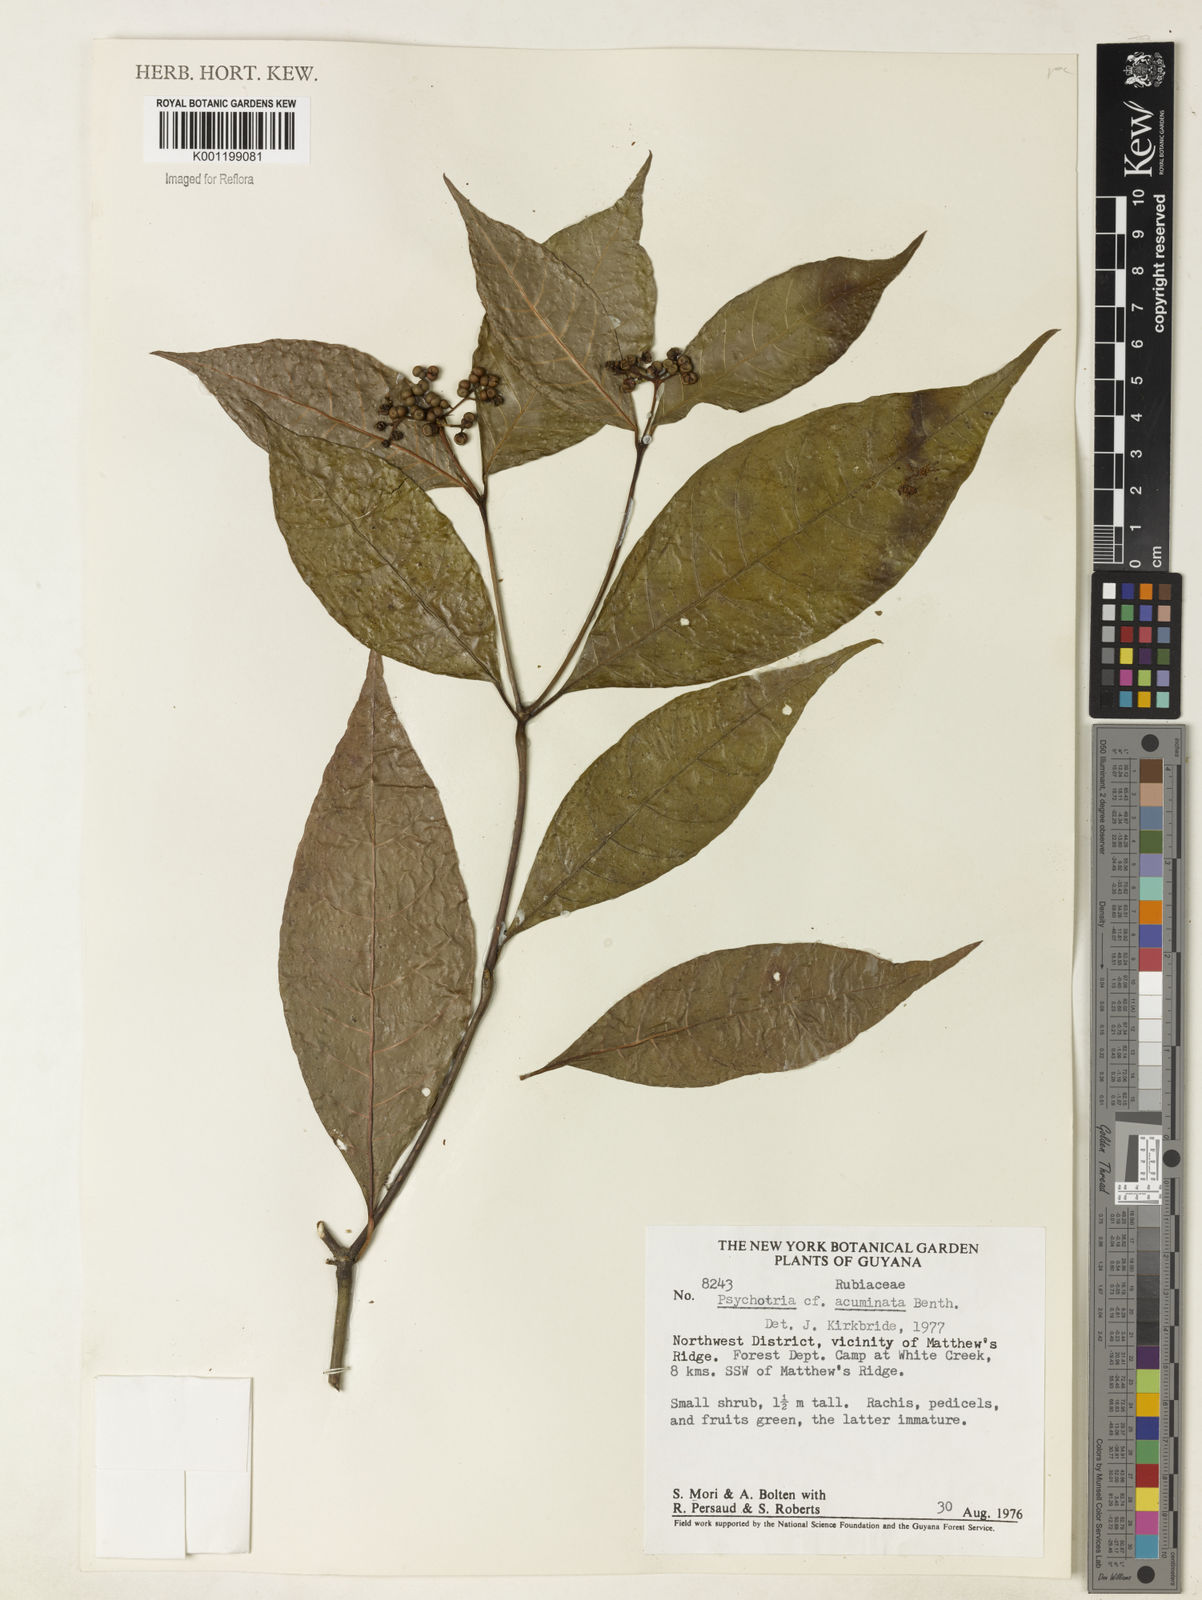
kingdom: Plantae
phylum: Tracheophyta
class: Magnoliopsida
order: Gentianales
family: Rubiaceae
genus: Palicourea
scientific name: Palicourea cuspidata
